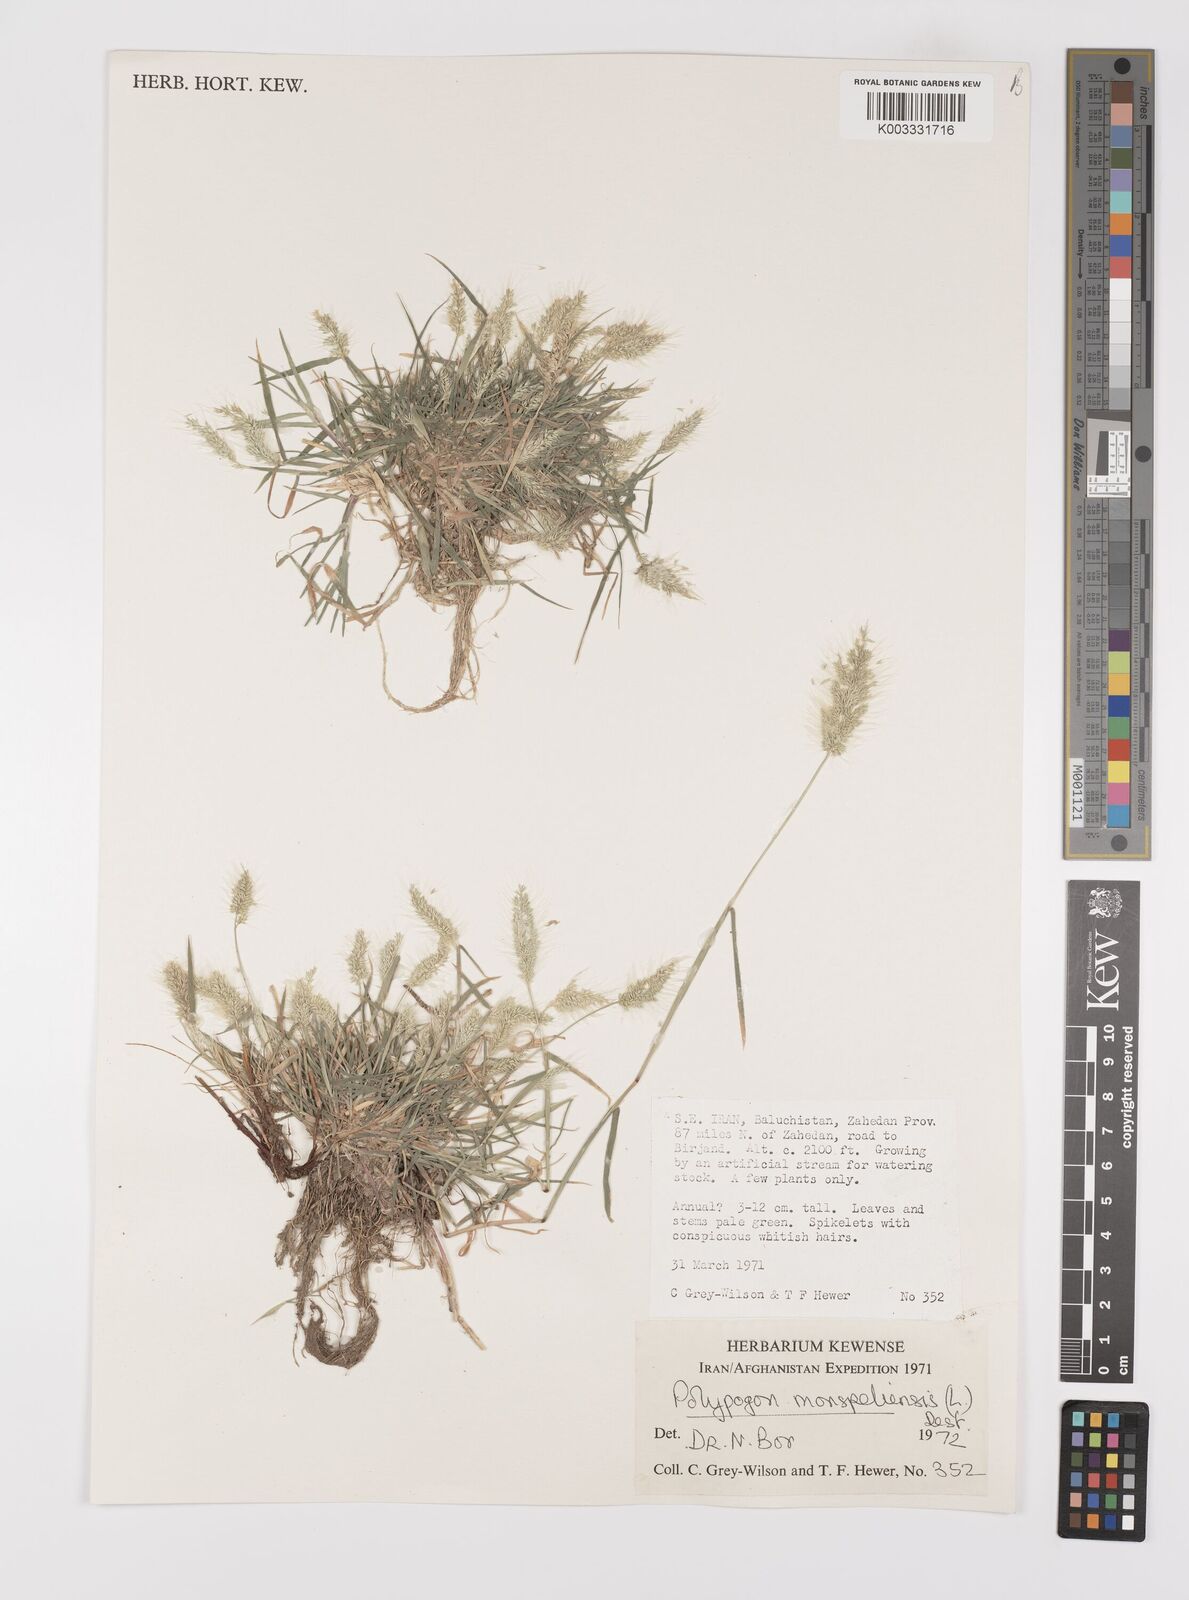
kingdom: Plantae
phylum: Tracheophyta
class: Liliopsida
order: Poales
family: Poaceae
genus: Polypogon
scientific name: Polypogon monspeliensis
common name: Annual rabbitsfoot grass
